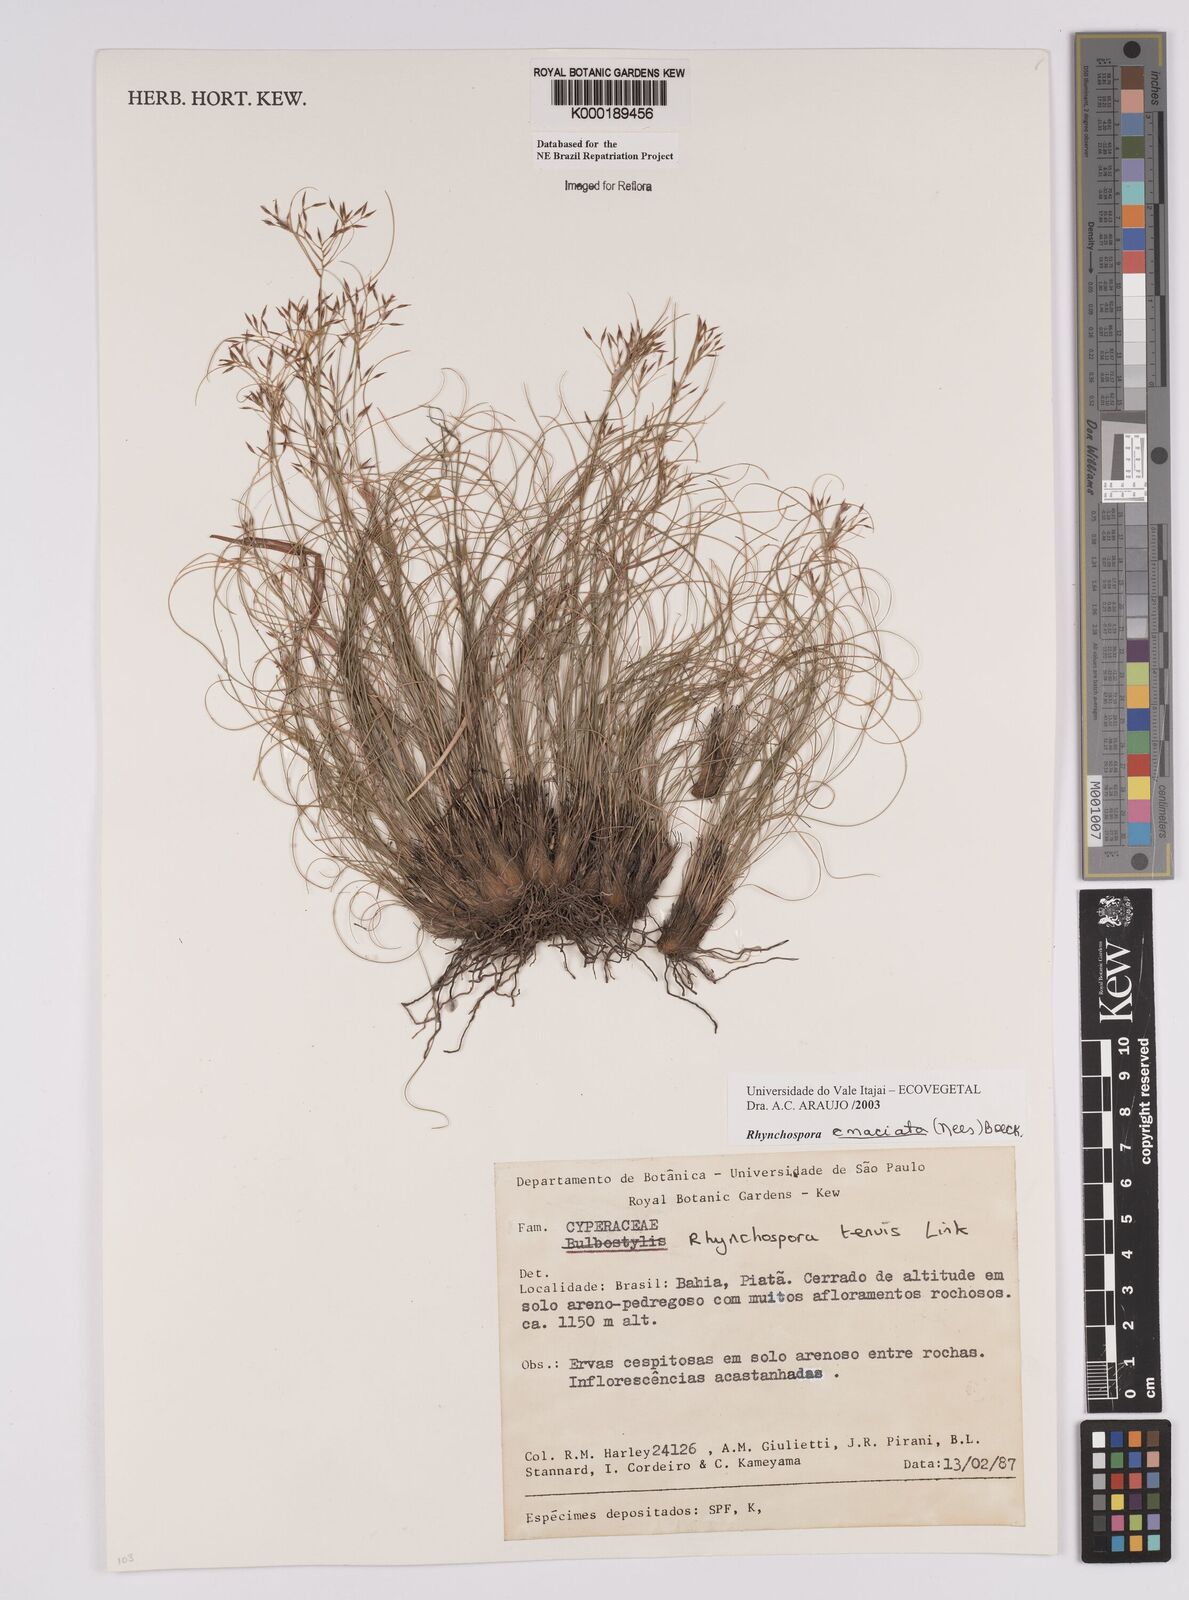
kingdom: Plantae
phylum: Tracheophyta
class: Liliopsida
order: Poales
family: Cyperaceae
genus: Rhynchospora
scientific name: Rhynchospora emaciata
